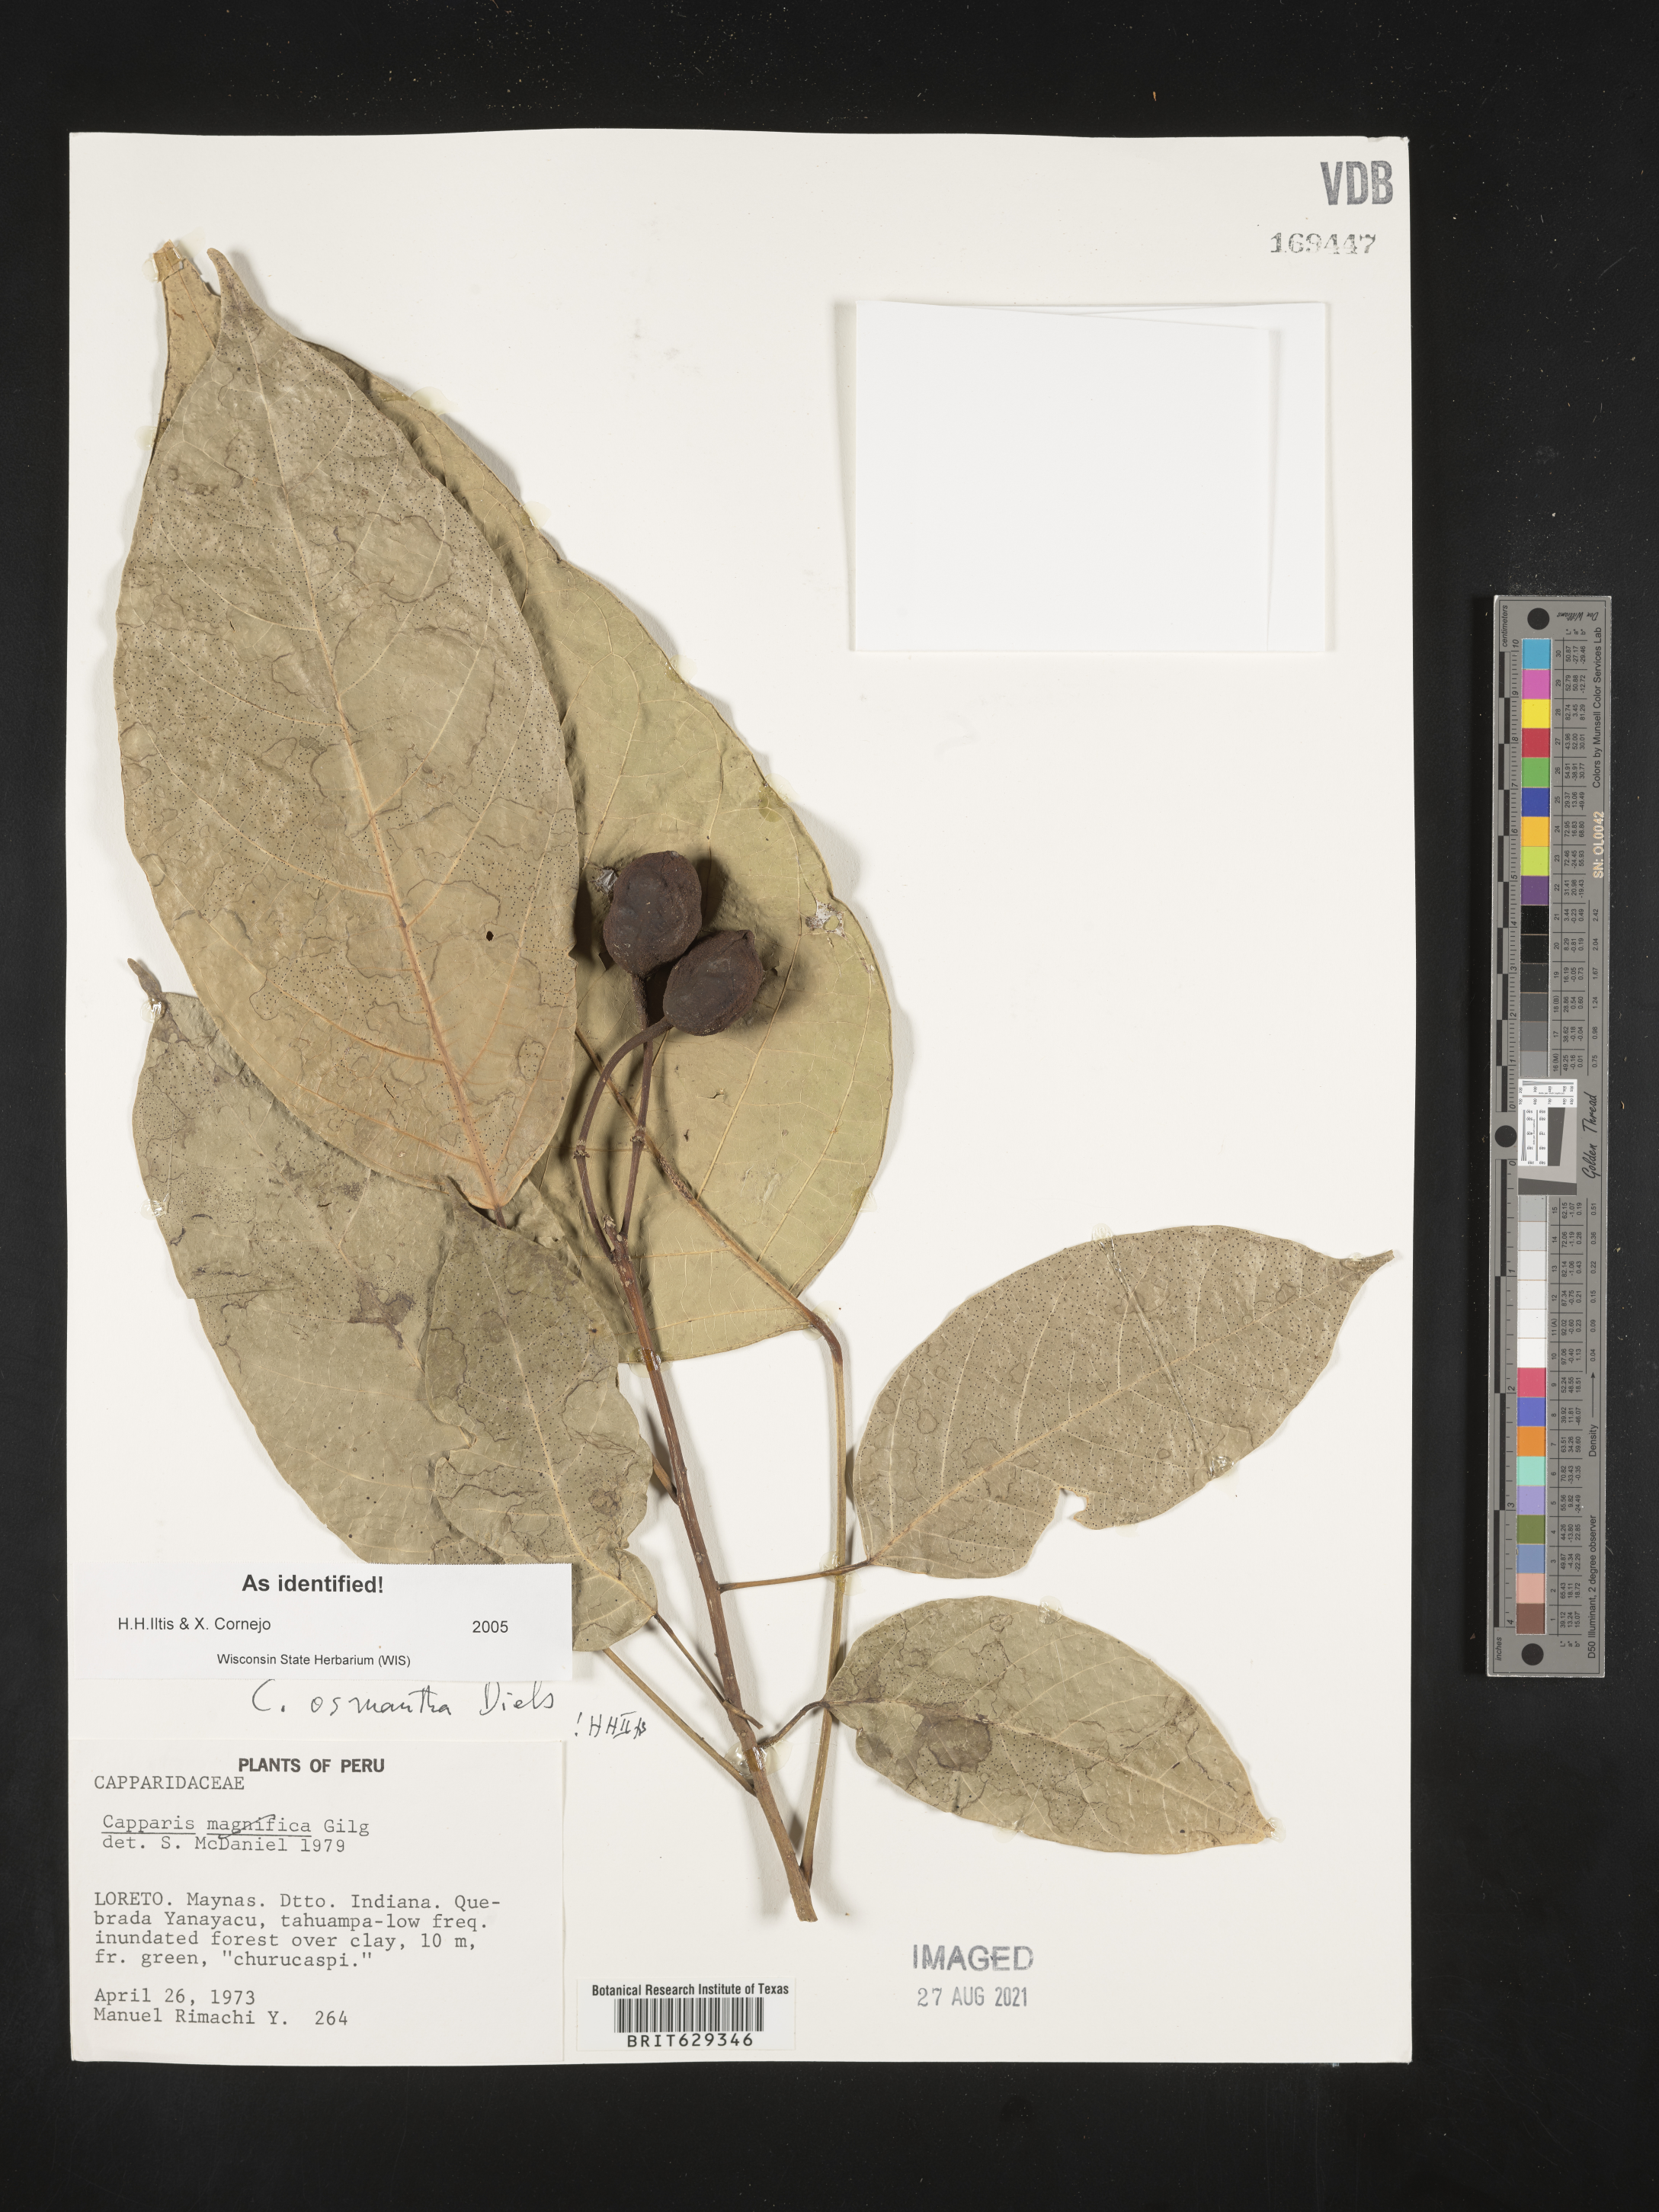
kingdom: Plantae
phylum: Tracheophyta
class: Magnoliopsida
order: Brassicales
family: Capparaceae
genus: Capparidastrum
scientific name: Capparidastrum macrophyllum
